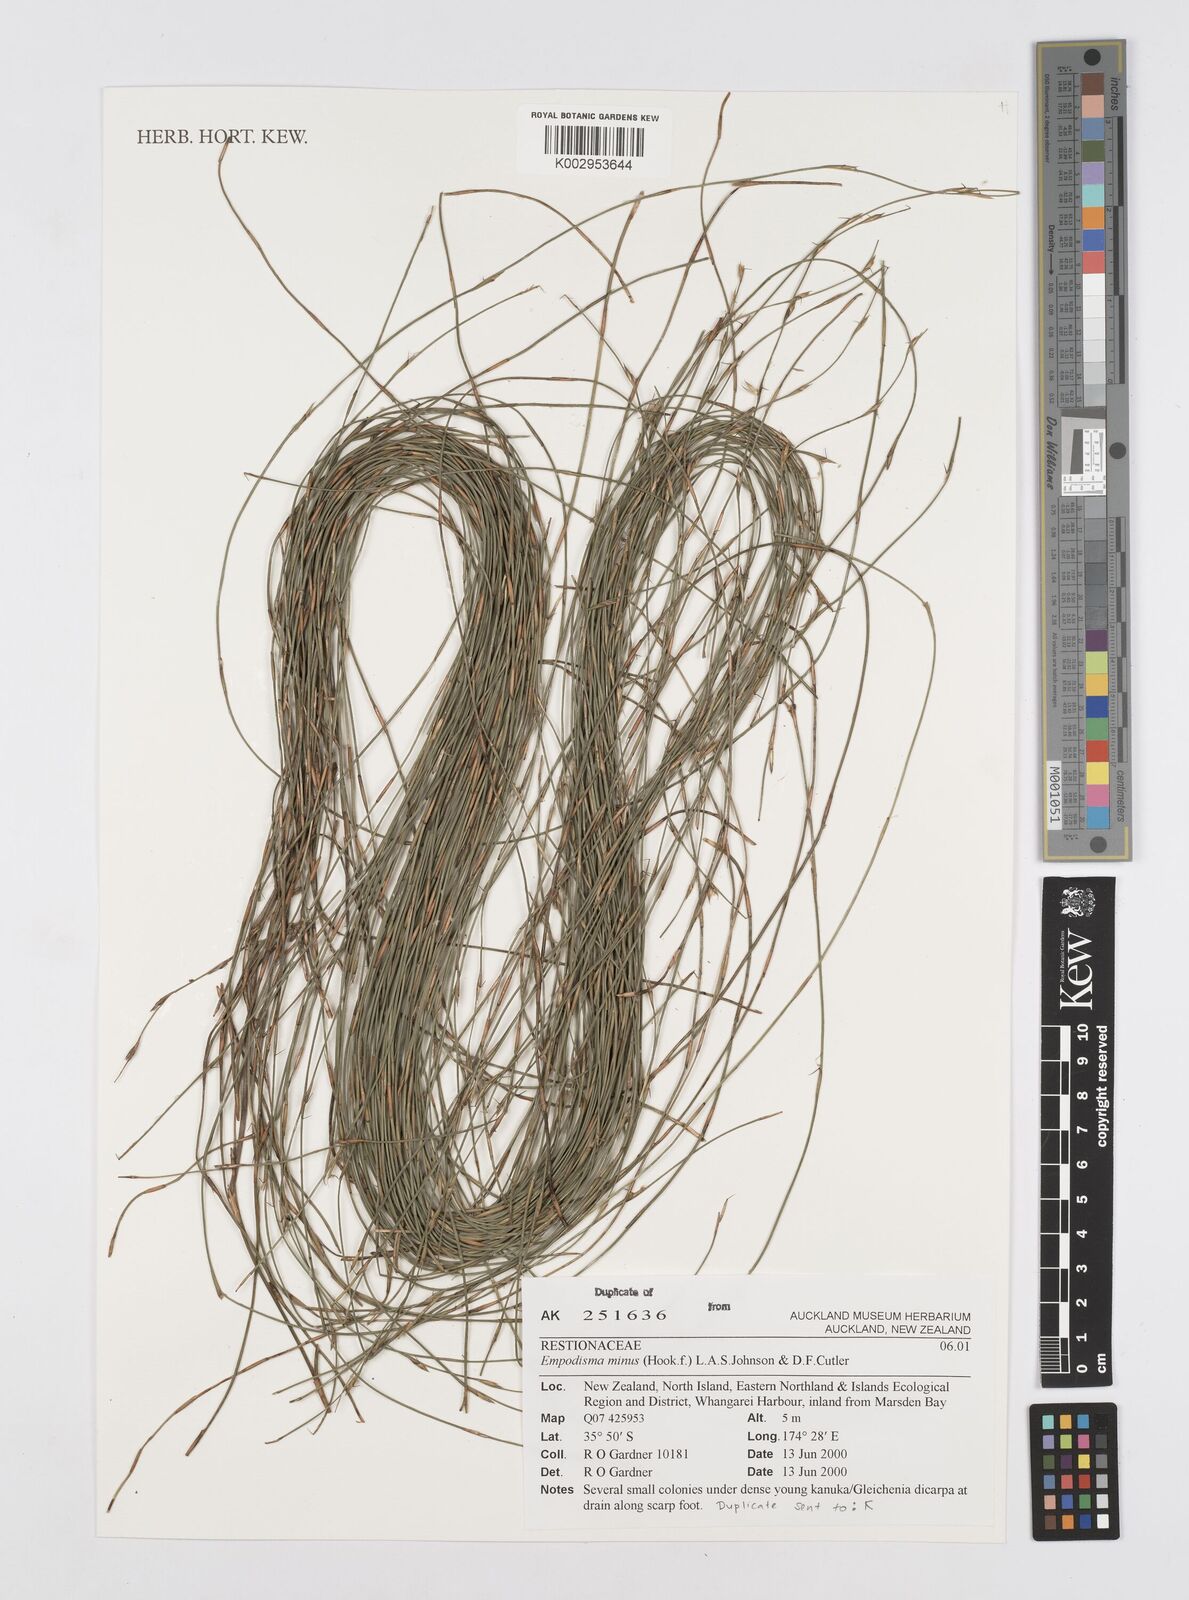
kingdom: Plantae
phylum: Tracheophyta
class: Liliopsida
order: Poales
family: Restionaceae
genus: Empodisma
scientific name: Empodisma minus
